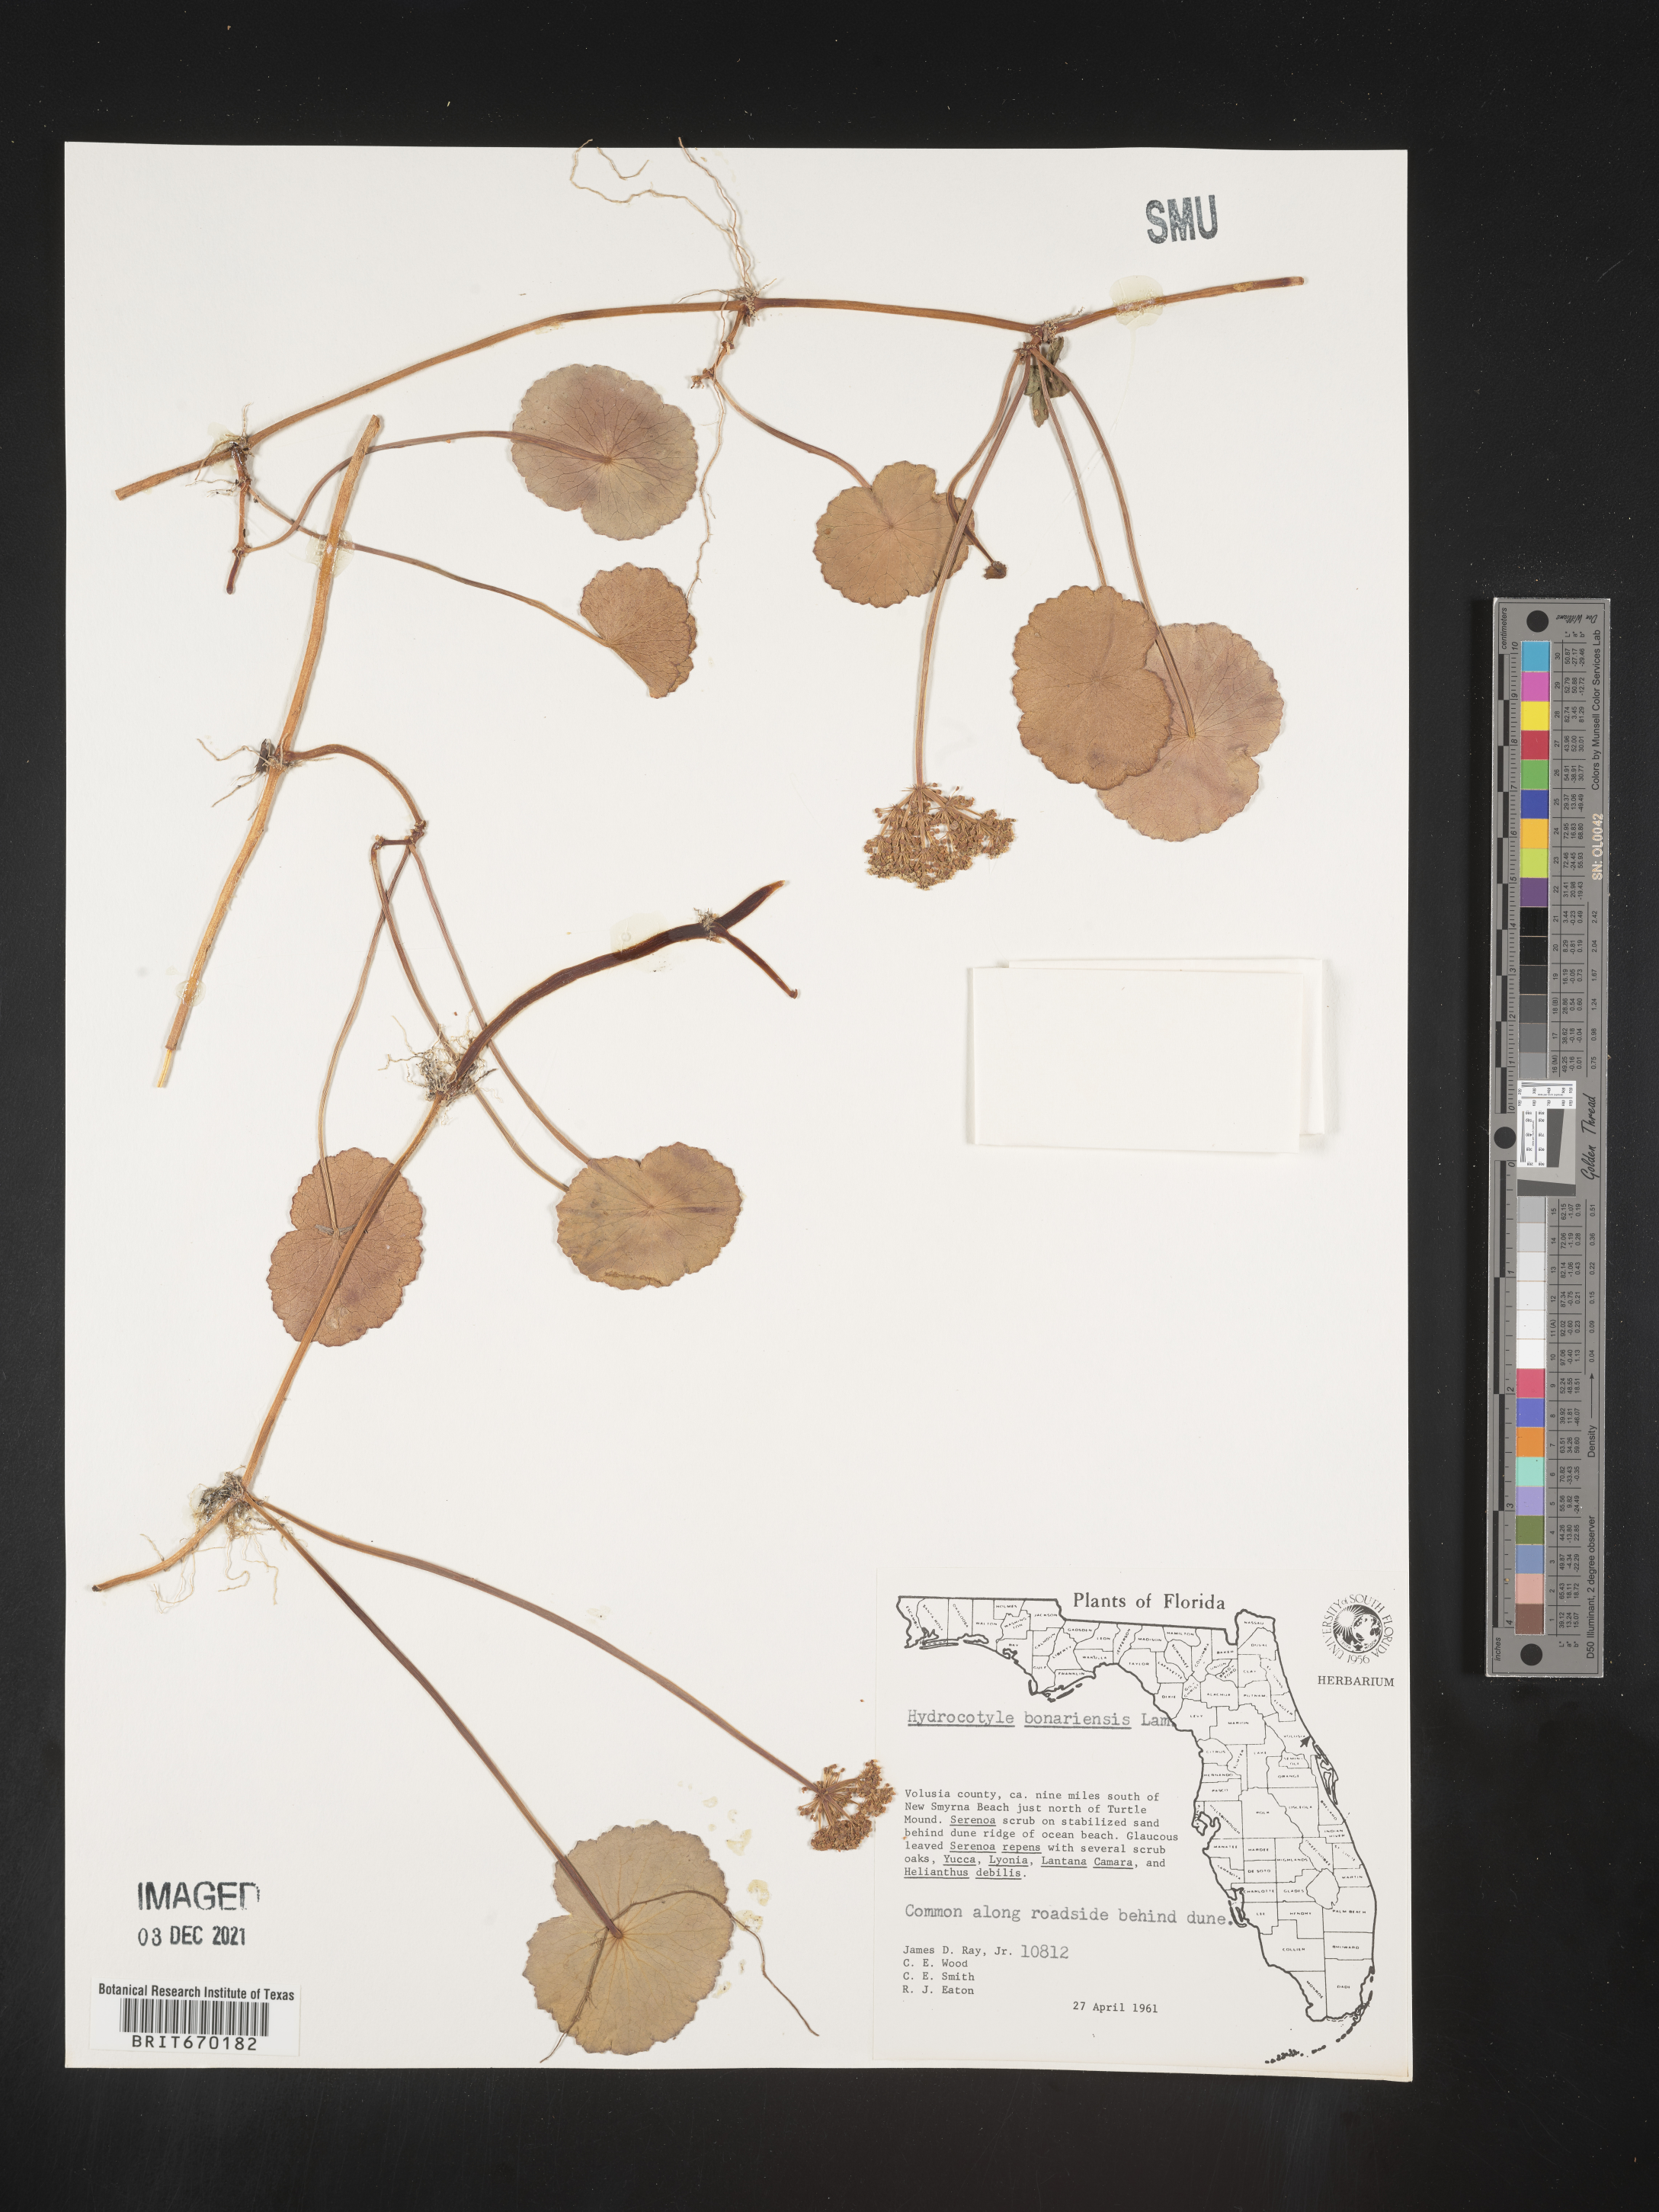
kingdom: Plantae
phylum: Tracheophyta
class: Magnoliopsida
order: Apiales
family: Araliaceae
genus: Hydrocotyle
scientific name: Hydrocotyle bonariensis
